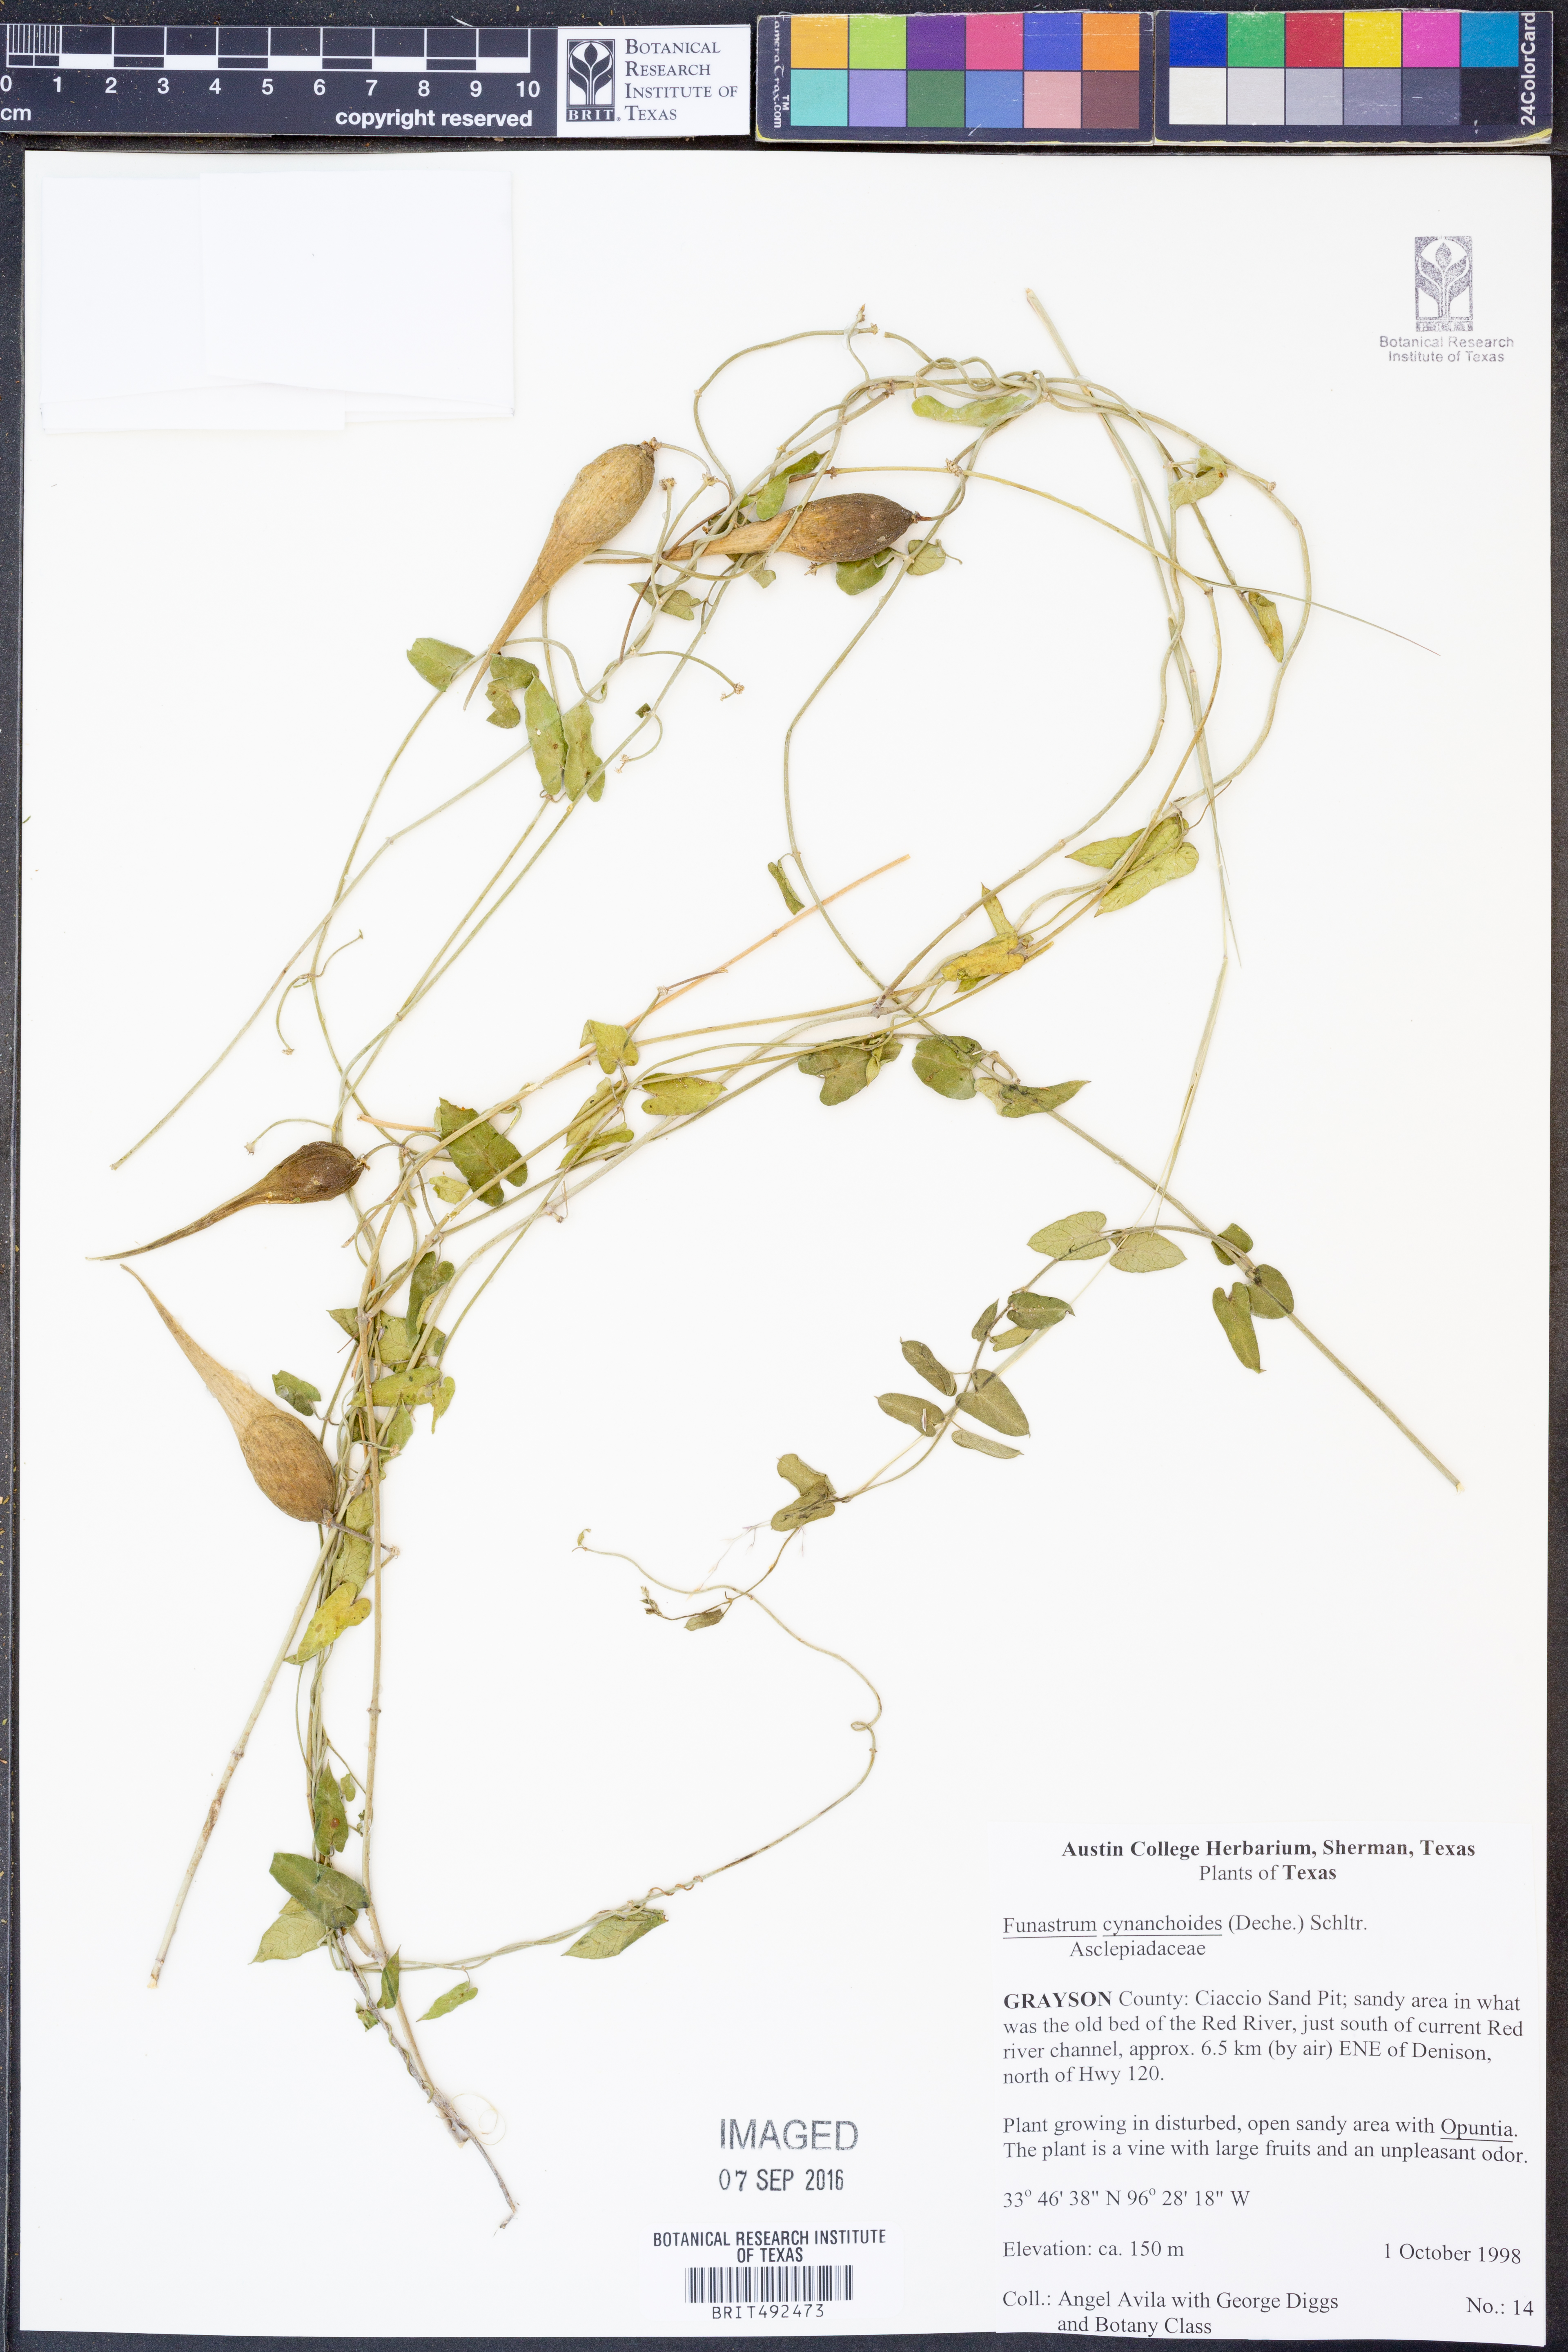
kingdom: Plantae
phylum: Tracheophyta
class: Magnoliopsida
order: Gentianales
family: Apocynaceae
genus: Funastrum
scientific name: Funastrum cynanchoides
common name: Climbing-milkweed
